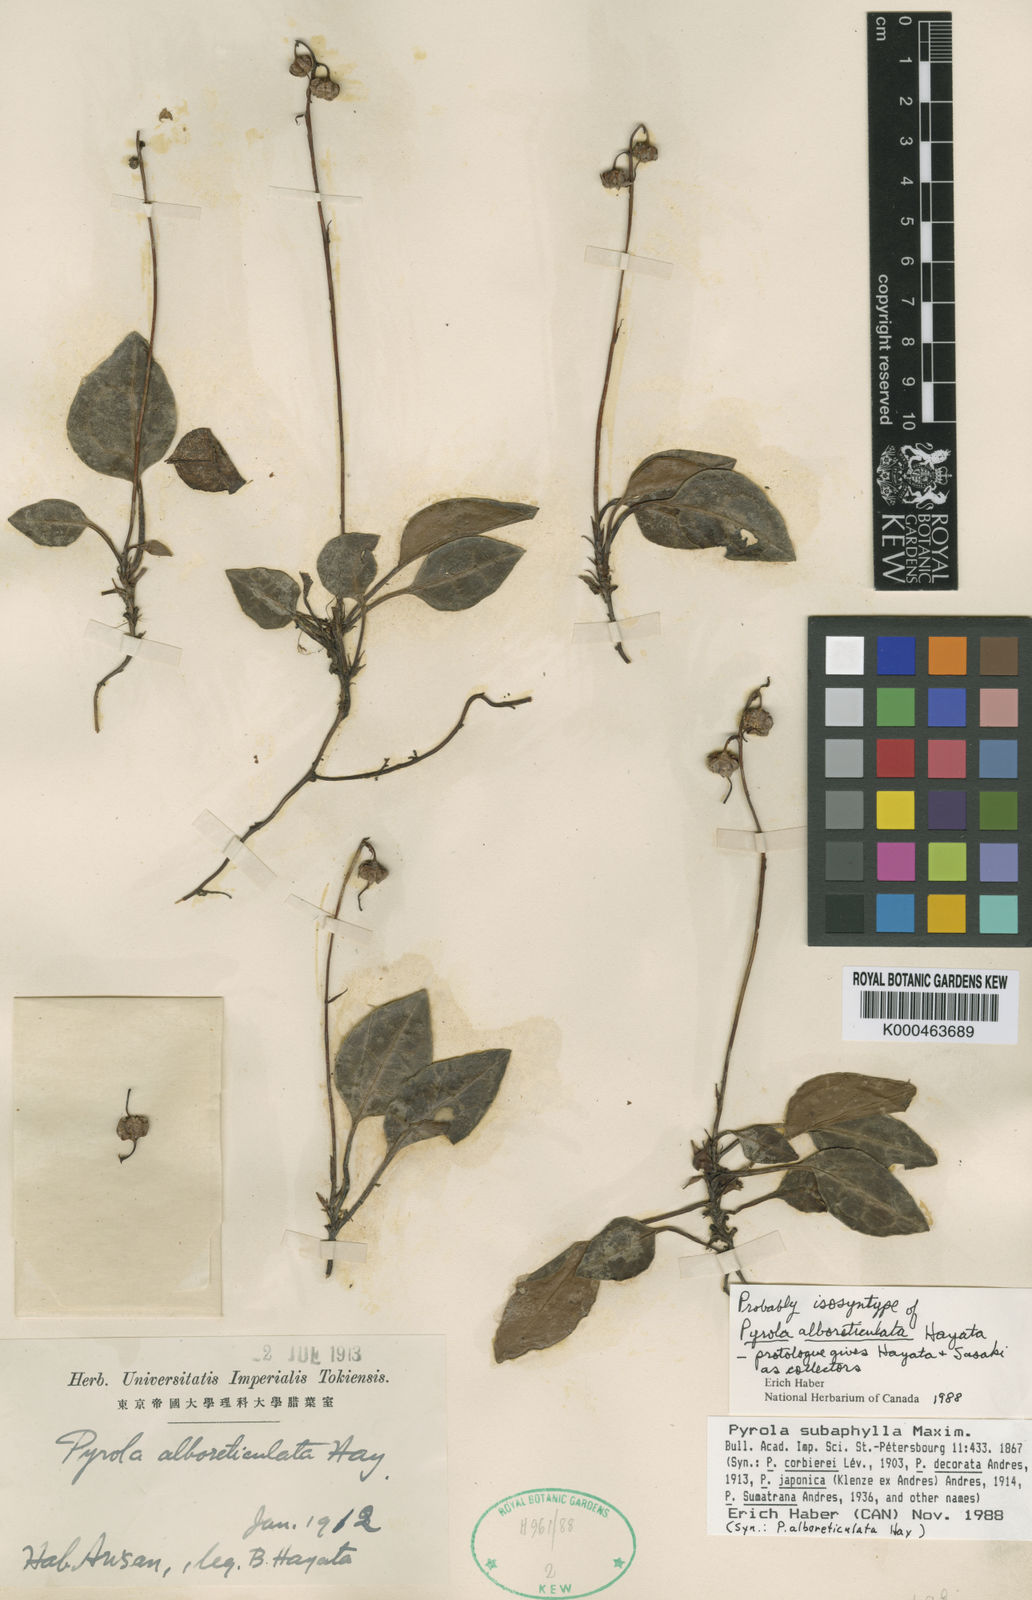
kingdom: Plantae
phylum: Tracheophyta
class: Magnoliopsida
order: Ericales
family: Ericaceae
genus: Pyrola
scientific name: Pyrola subaphylla
